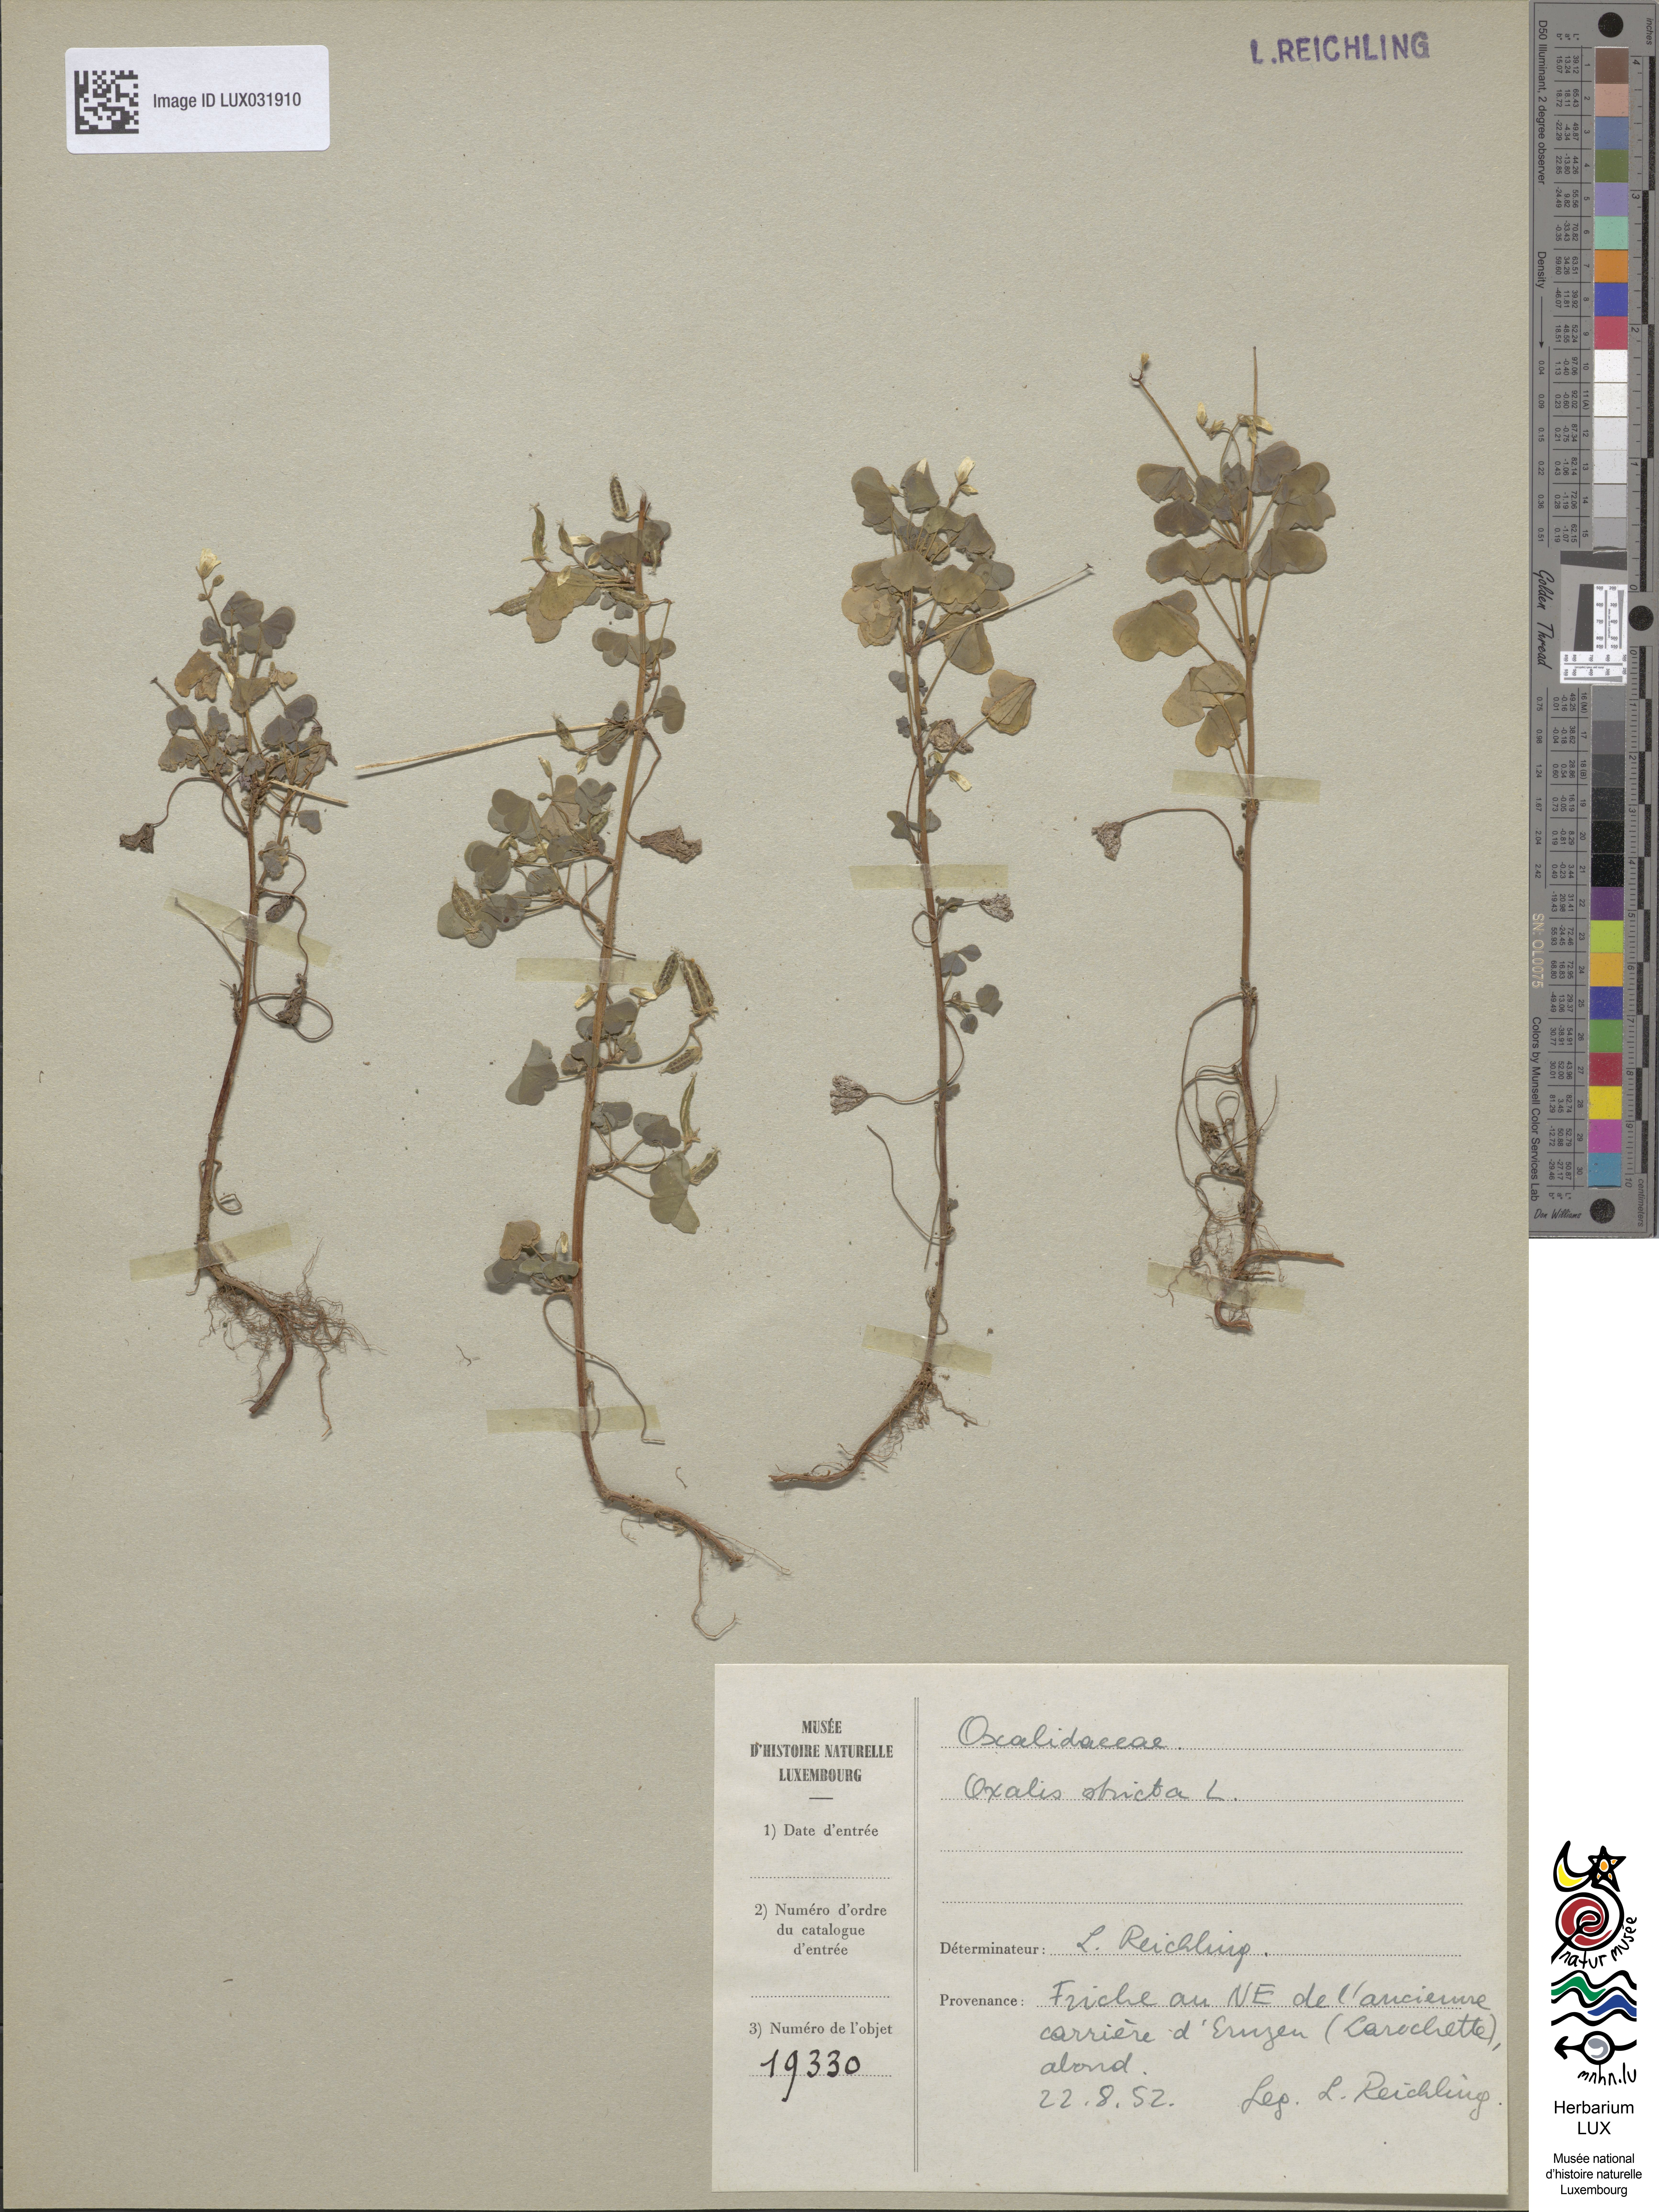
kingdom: Plantae
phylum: Tracheophyta
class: Magnoliopsida
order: Oxalidales
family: Oxalidaceae
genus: Oxalis
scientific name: Oxalis stricta
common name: Upright yellow-sorrel
